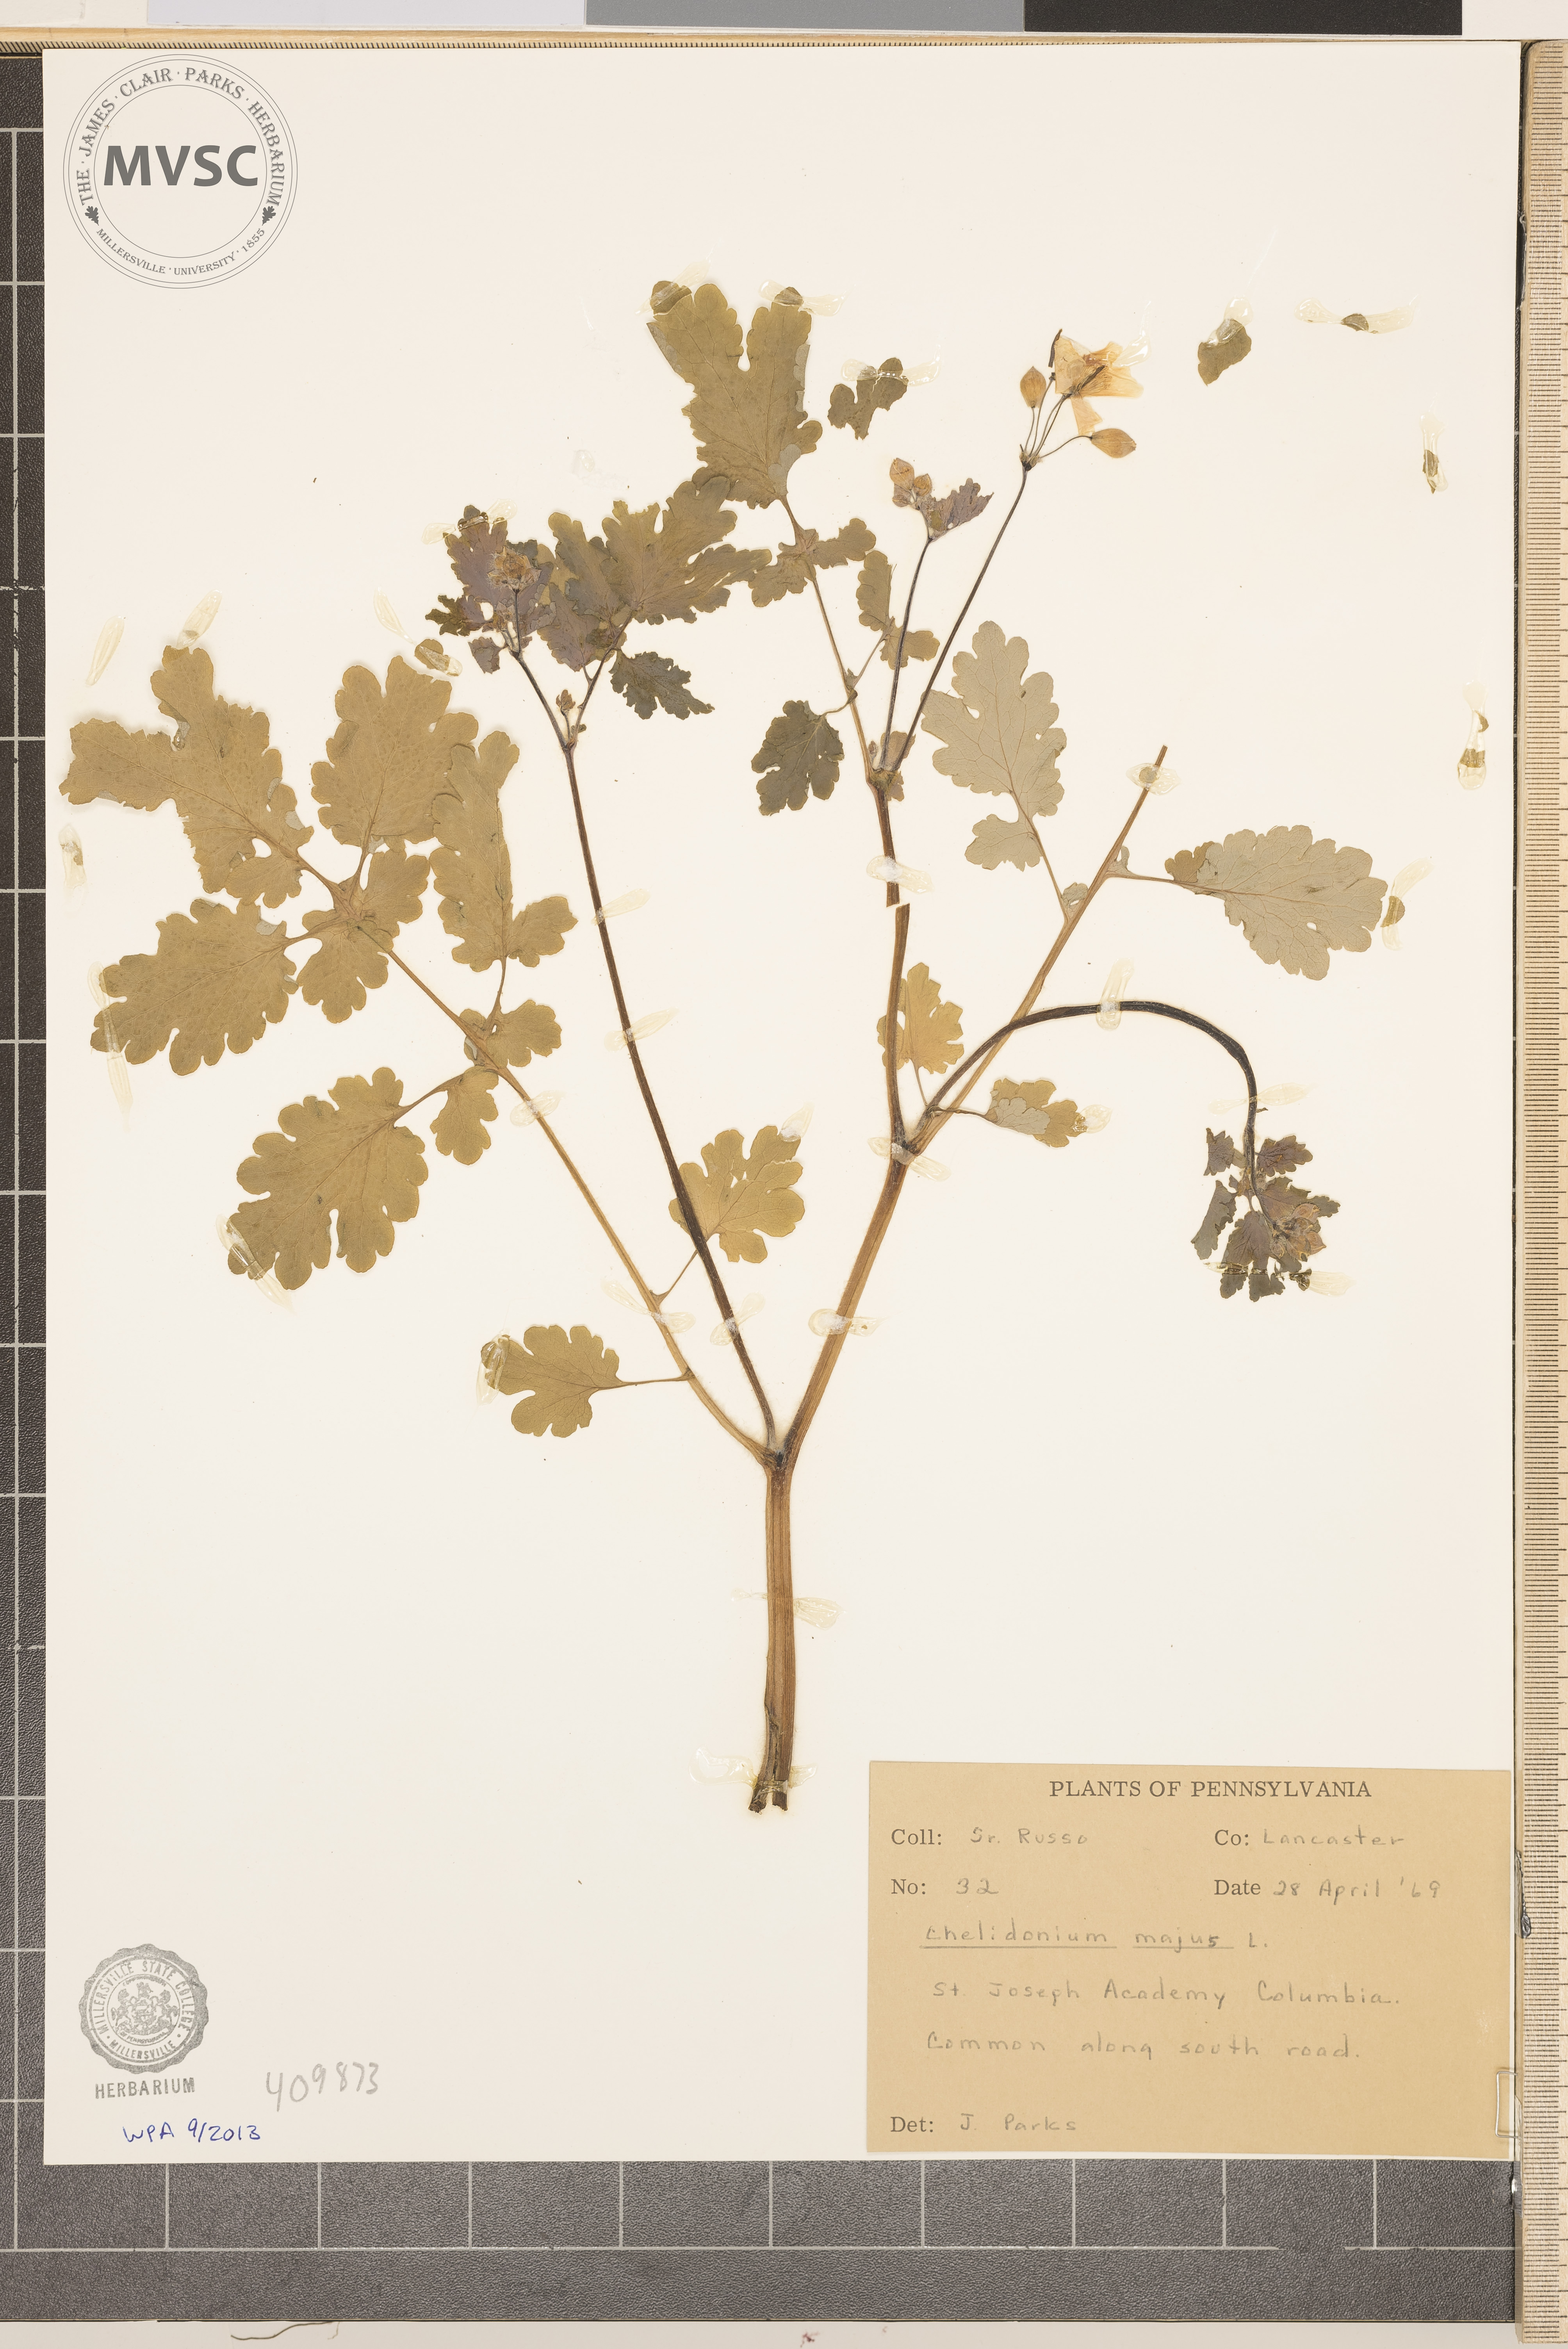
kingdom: Plantae
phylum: Tracheophyta
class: Magnoliopsida
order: Ranunculales
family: Papaveraceae
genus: Chelidonium
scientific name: Chelidonium majus
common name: Greater celandine
